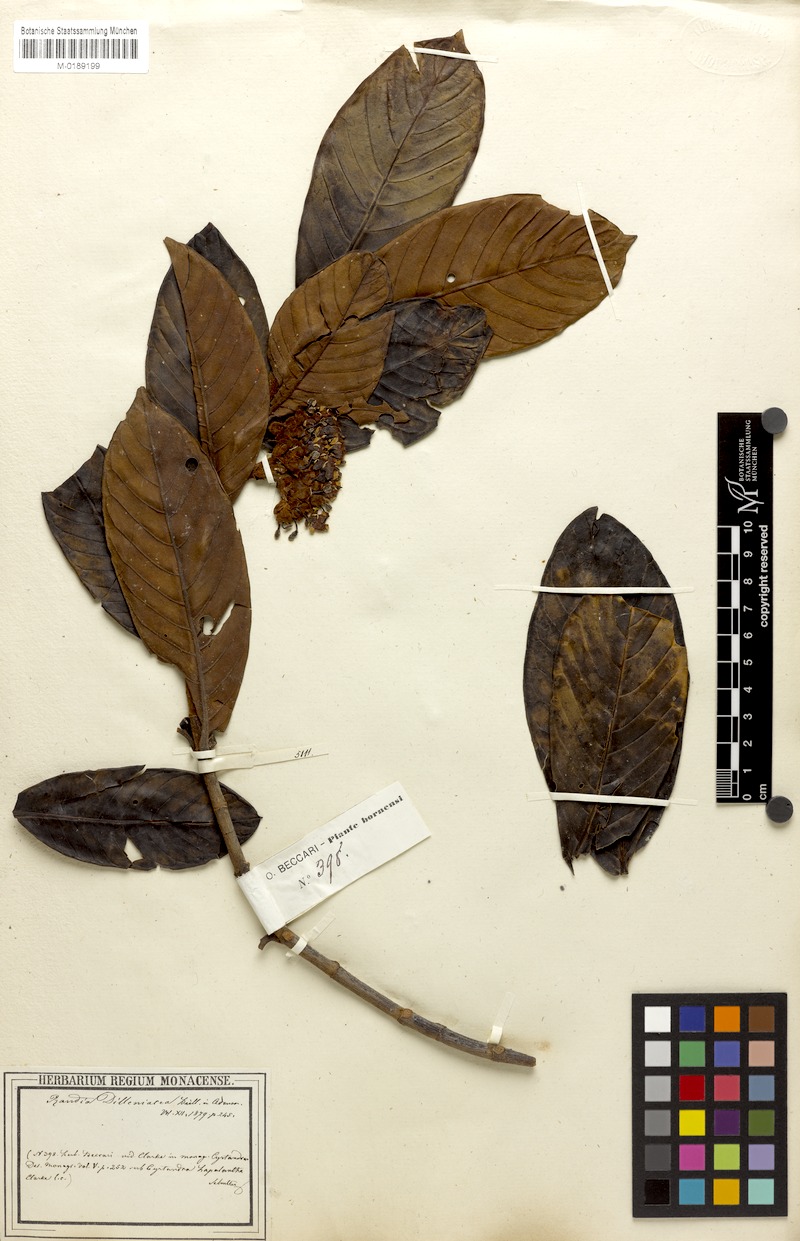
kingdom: Plantae
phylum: Tracheophyta
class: Magnoliopsida
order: Gentianales
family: Rubiaceae
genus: Aidia
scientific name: Aidia dilleniacea
